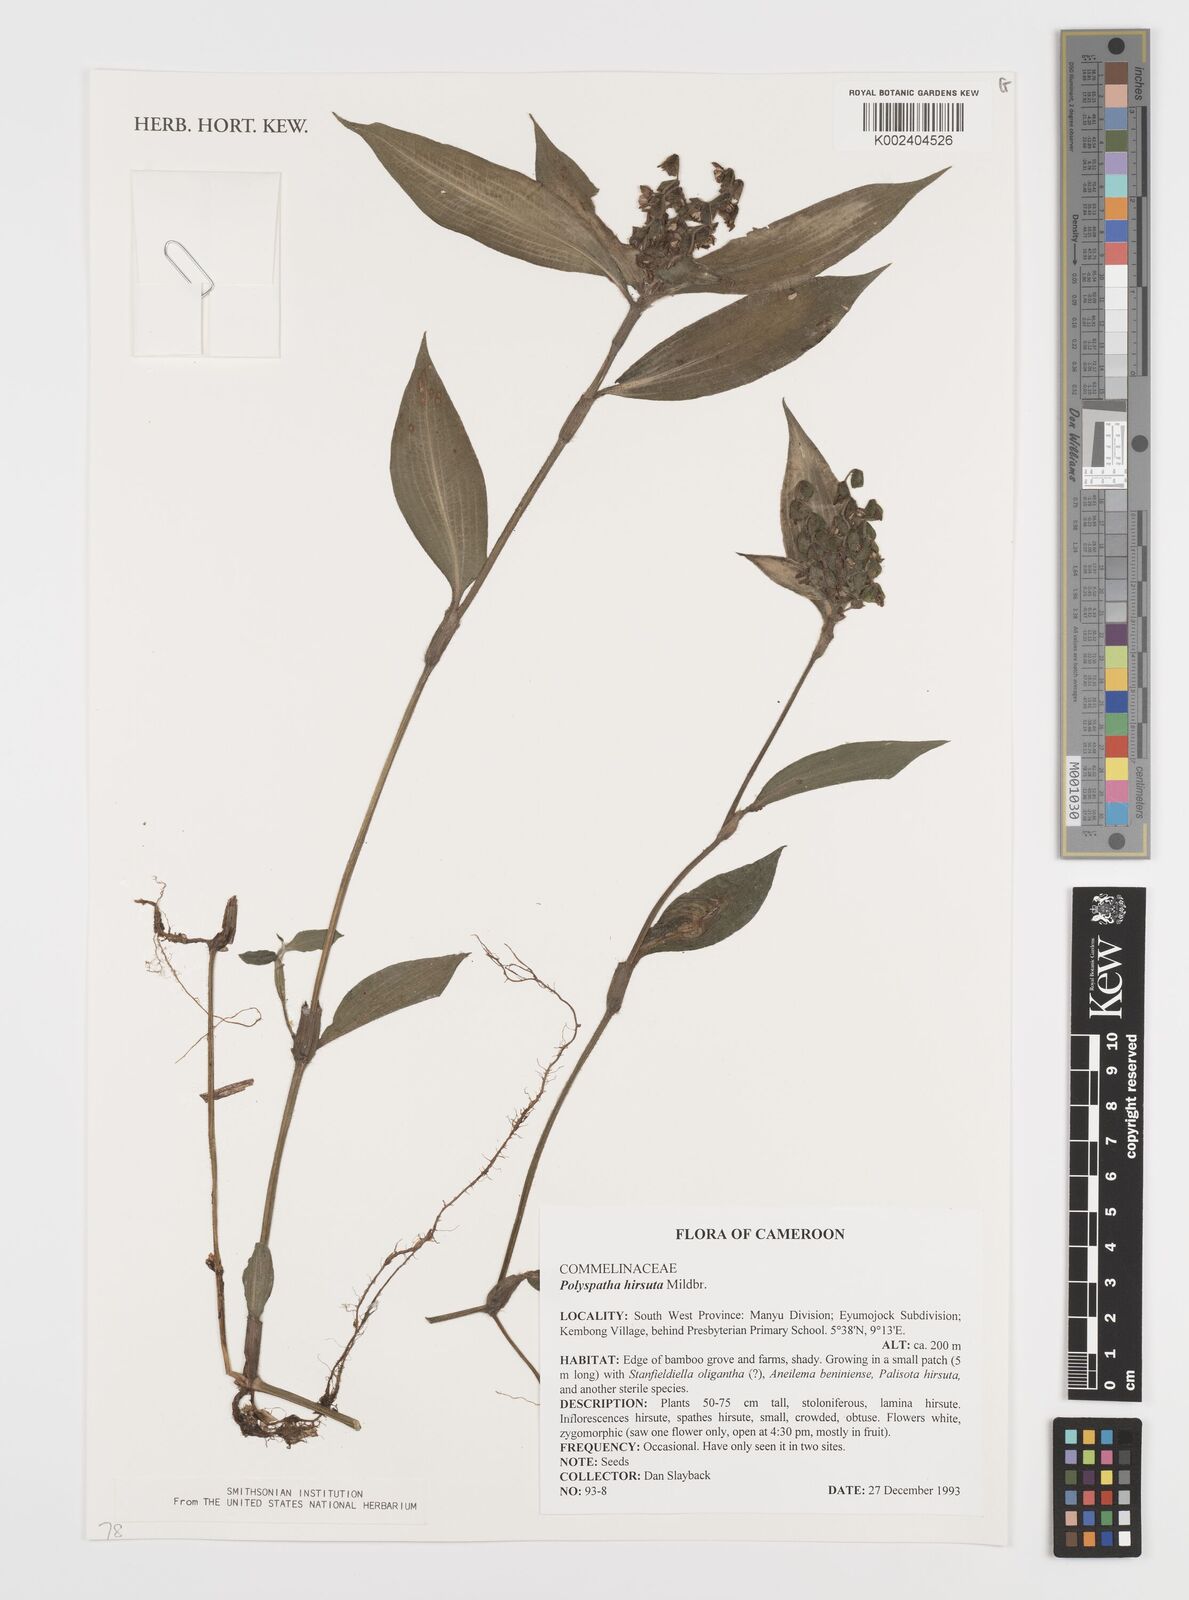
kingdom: Plantae
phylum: Tracheophyta
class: Liliopsida
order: Commelinales
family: Commelinaceae
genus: Polyspatha
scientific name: Polyspatha hirsuta
